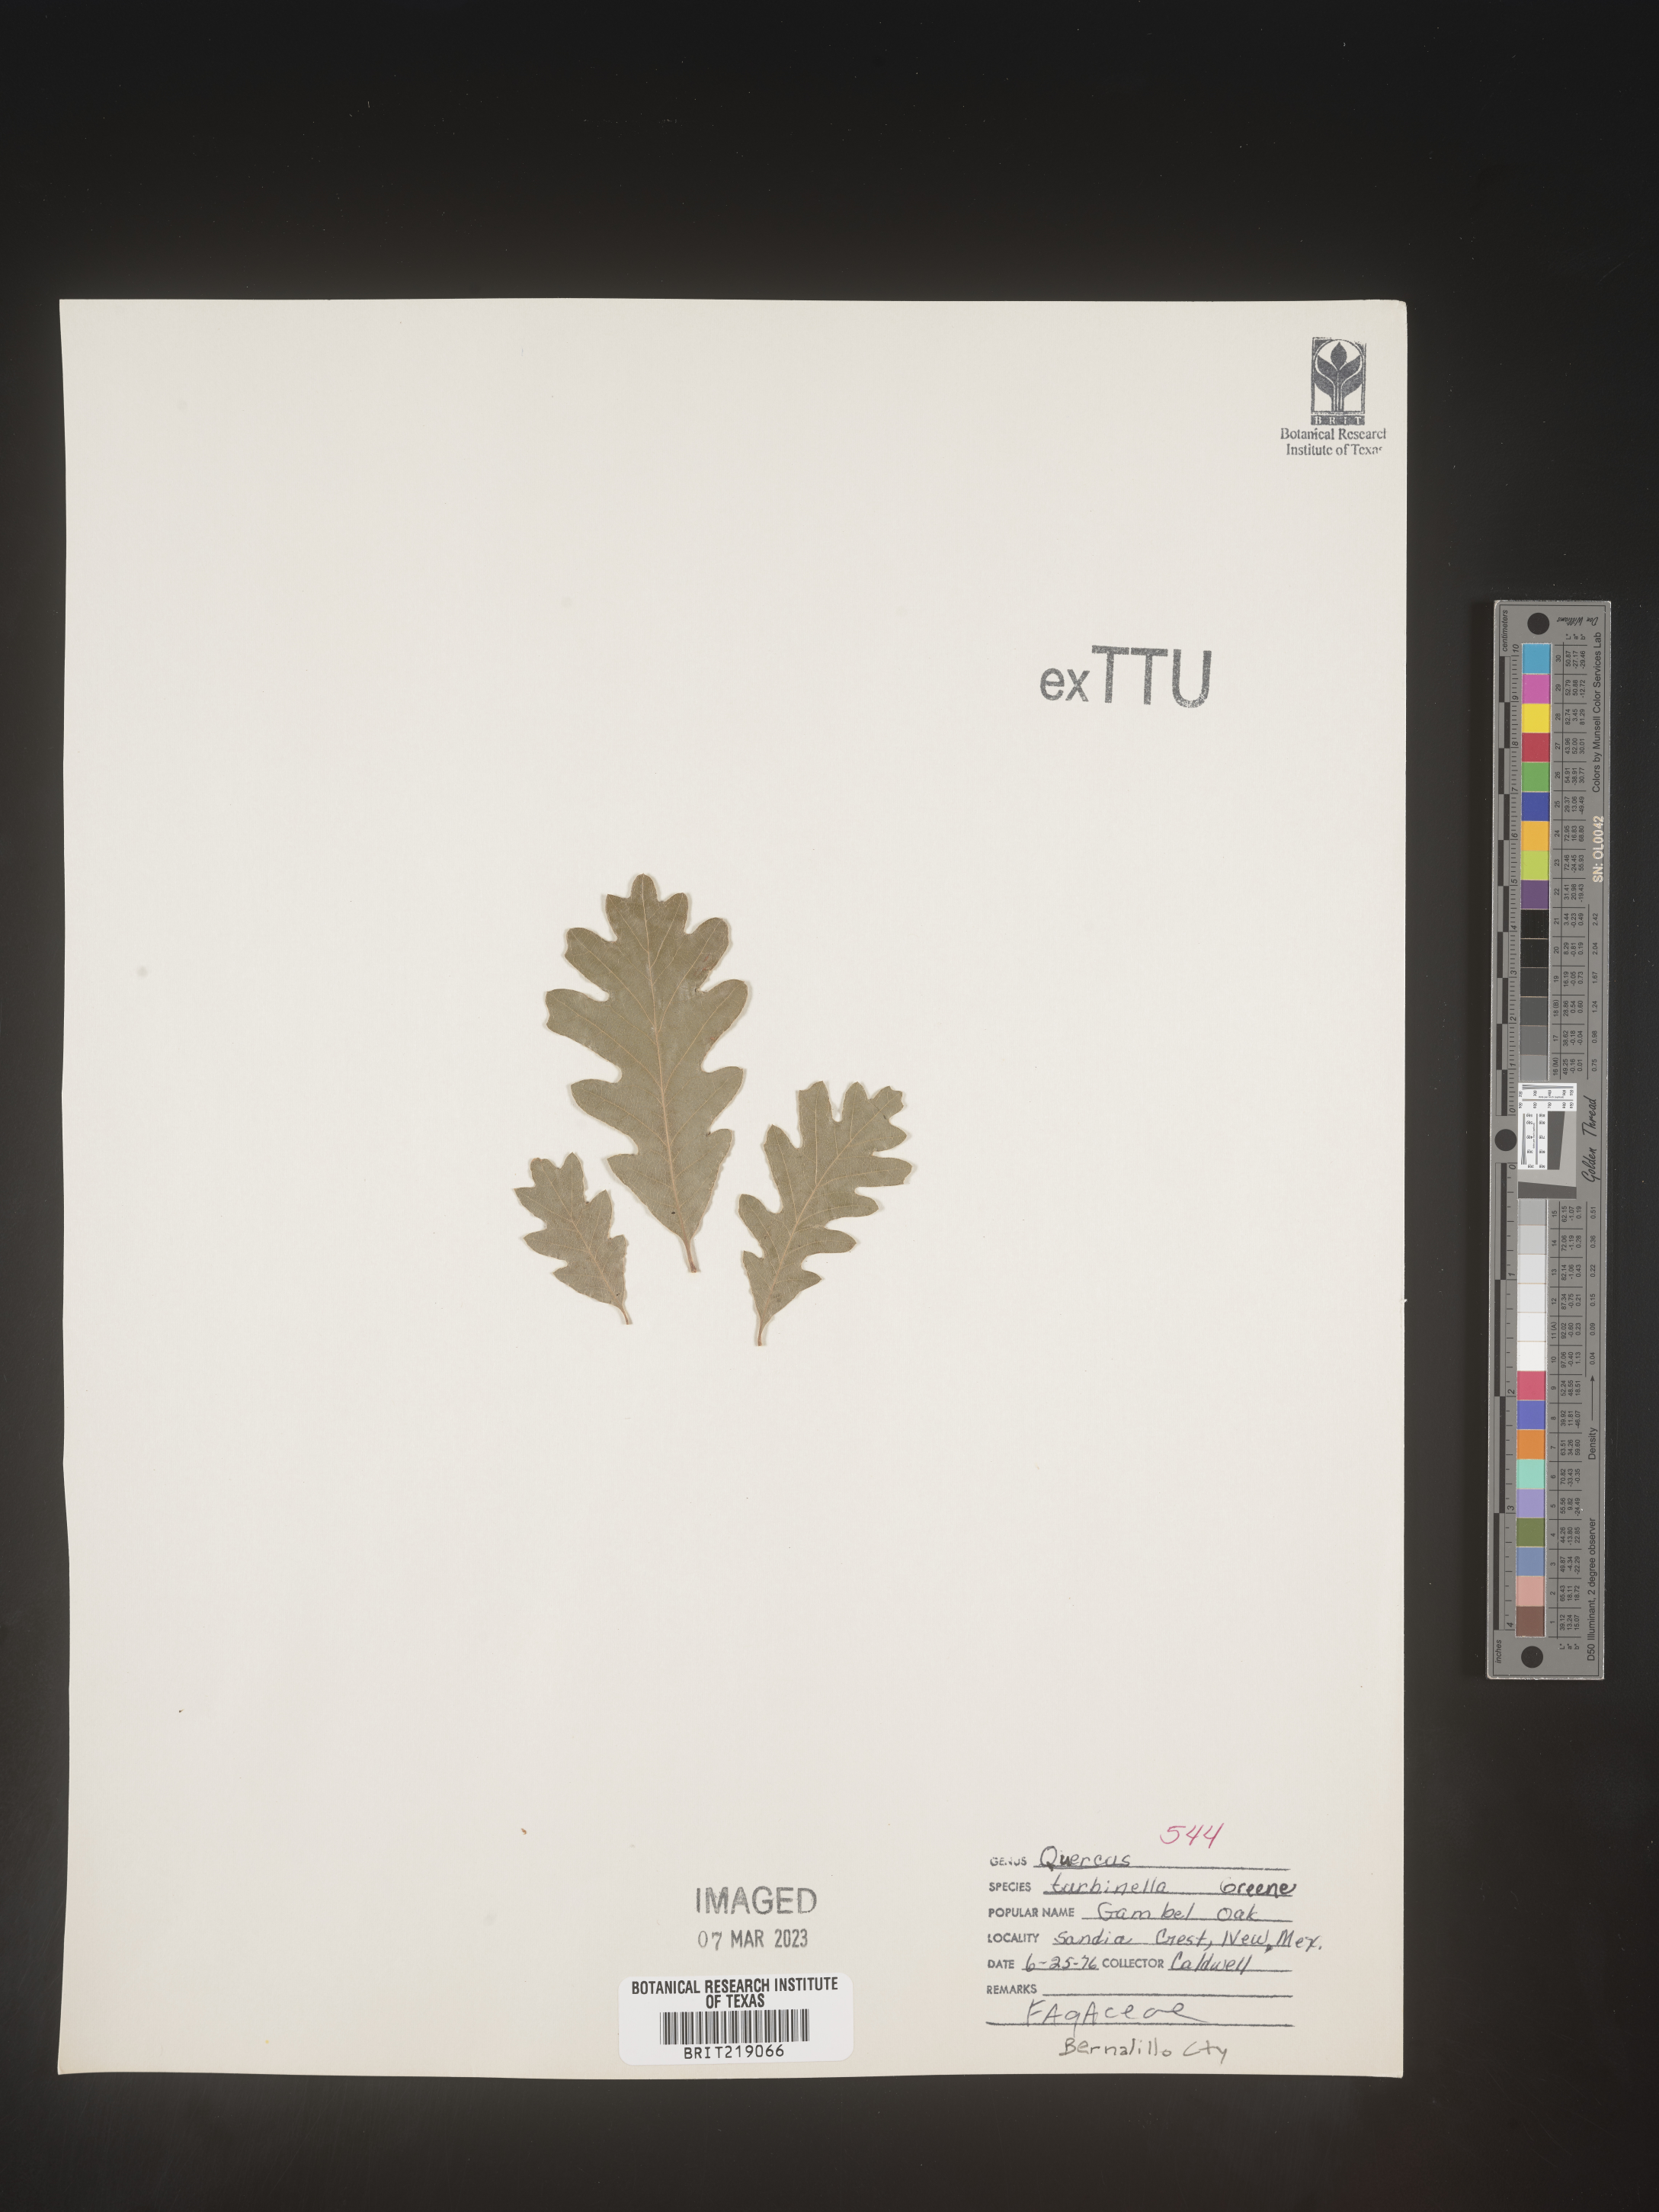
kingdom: Plantae
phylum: Tracheophyta
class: Magnoliopsida
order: Fagales
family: Fagaceae
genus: Quercus
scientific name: Quercus turbinella
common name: Sonoran scrub oak
